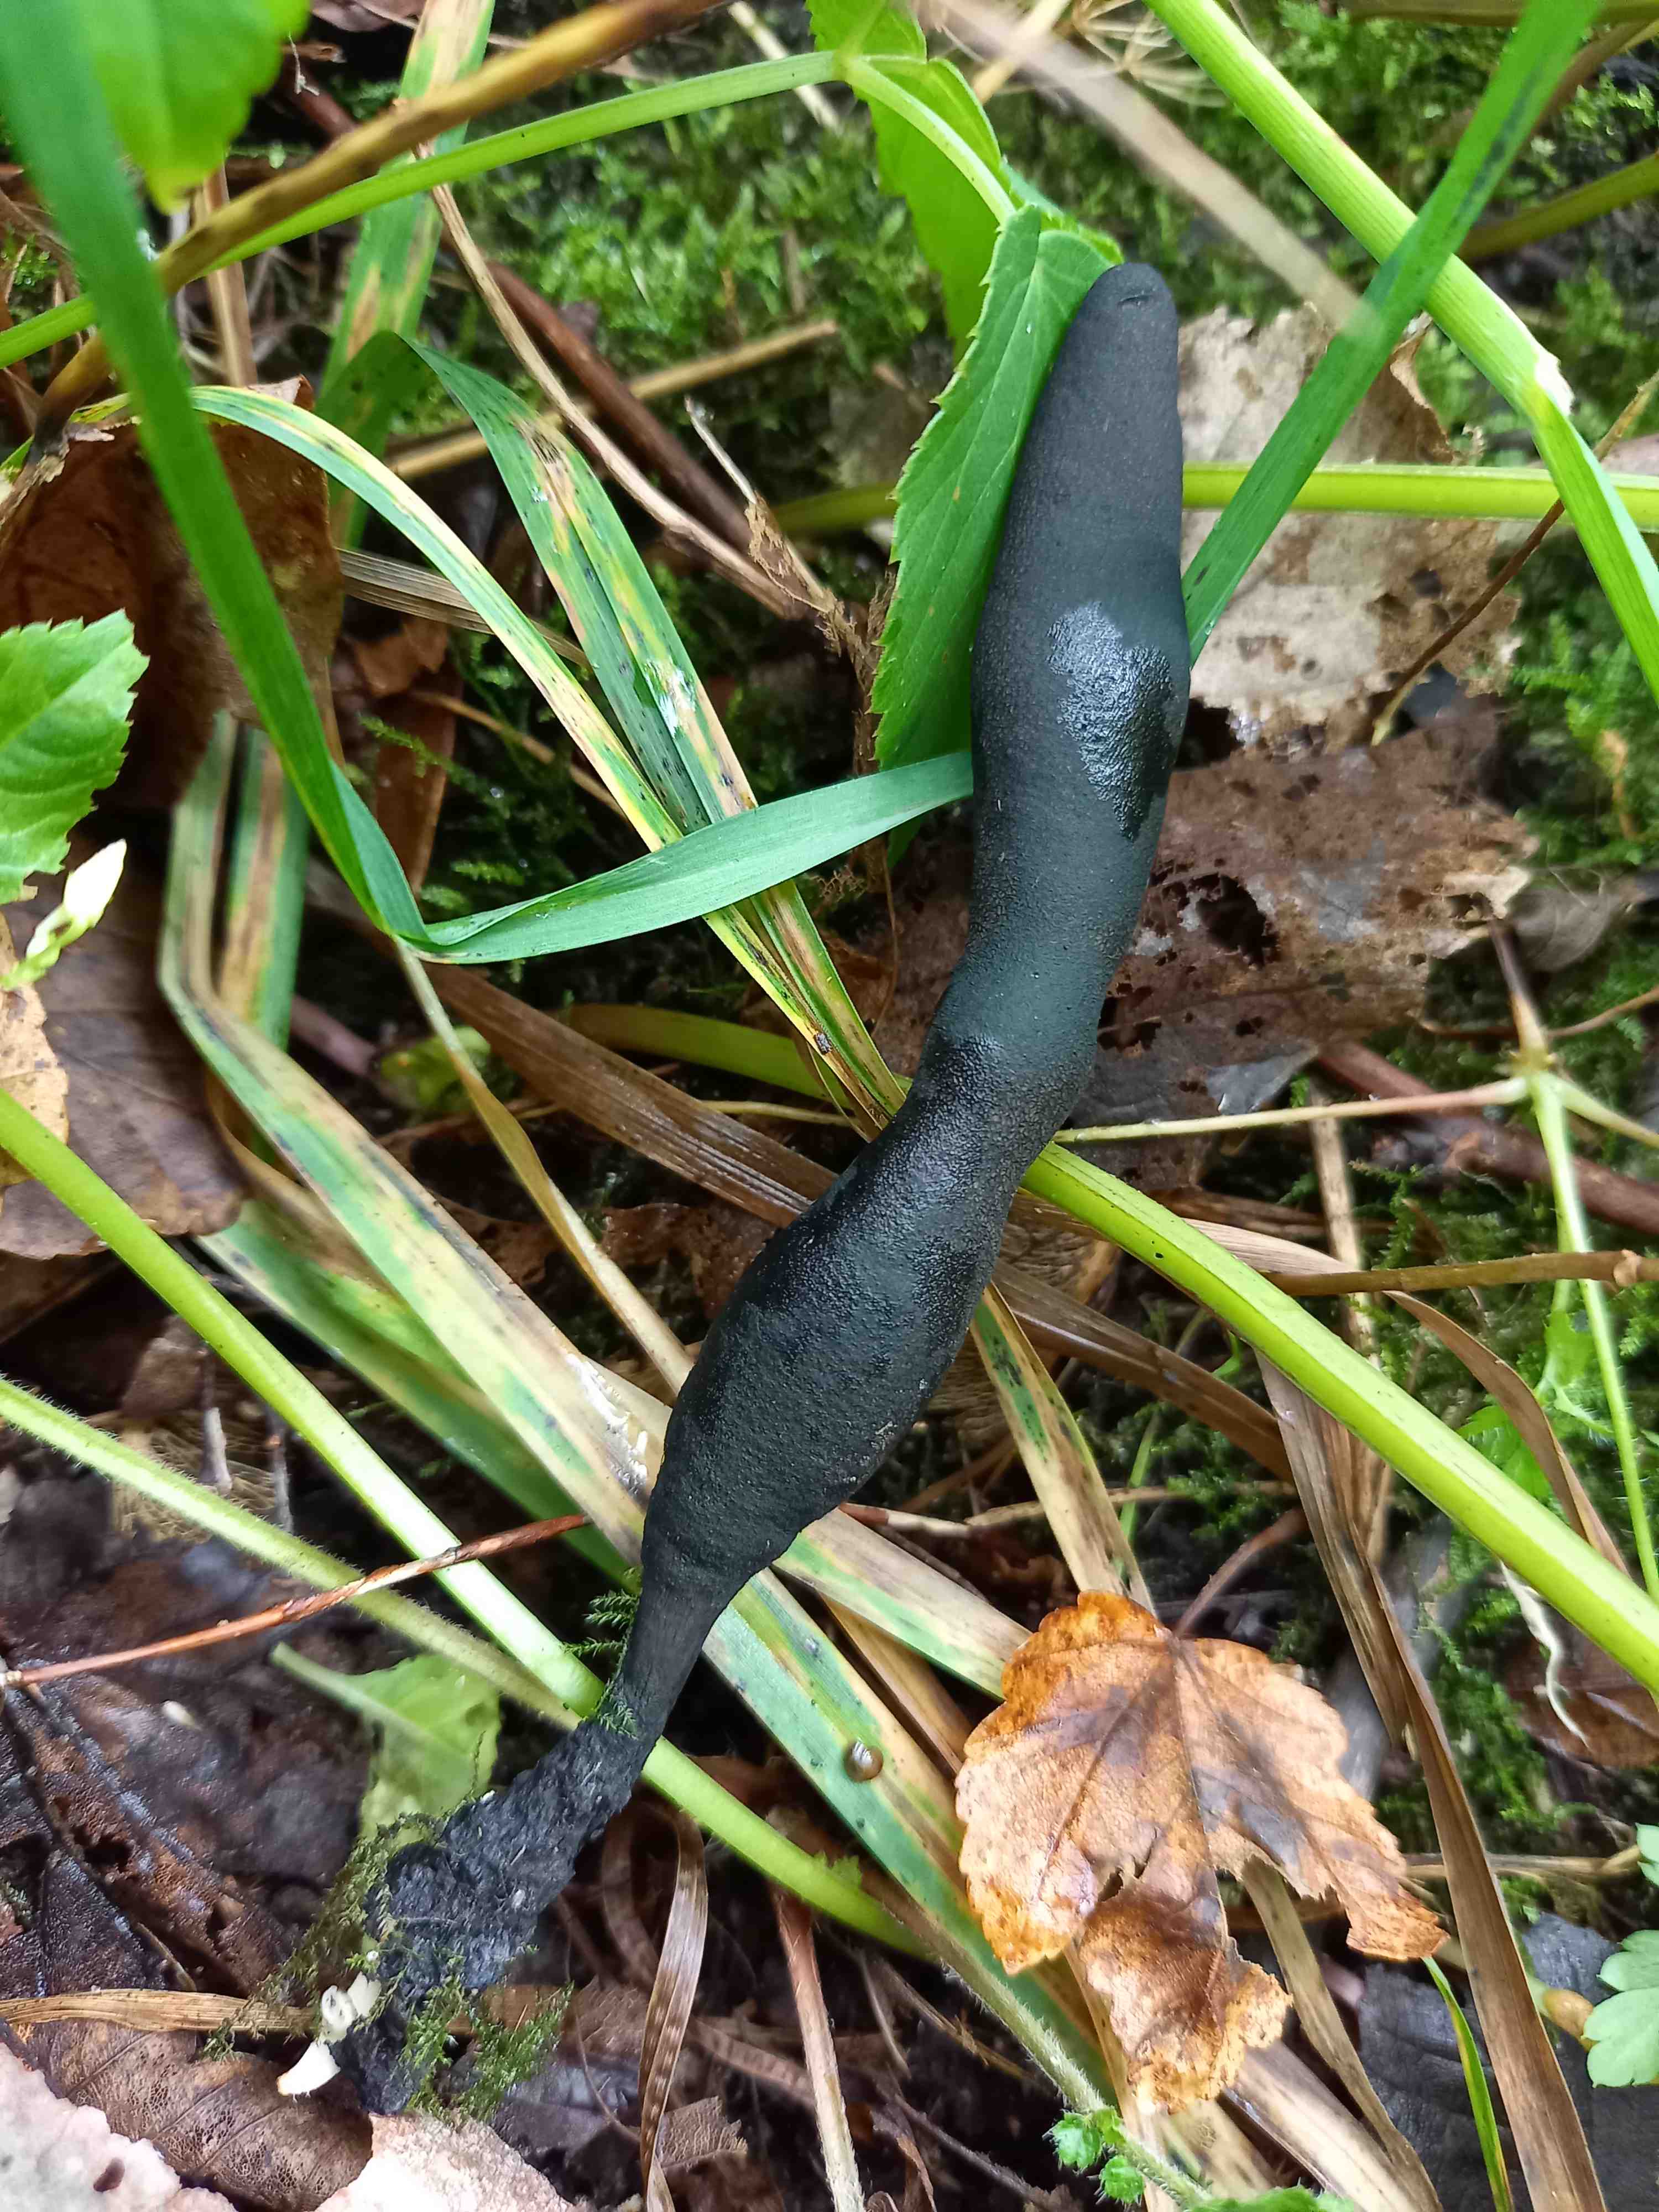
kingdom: Fungi
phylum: Ascomycota
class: Sordariomycetes
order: Xylariales
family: Xylariaceae
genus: Xylaria
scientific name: Xylaria longipes
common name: slank stødsvamp
